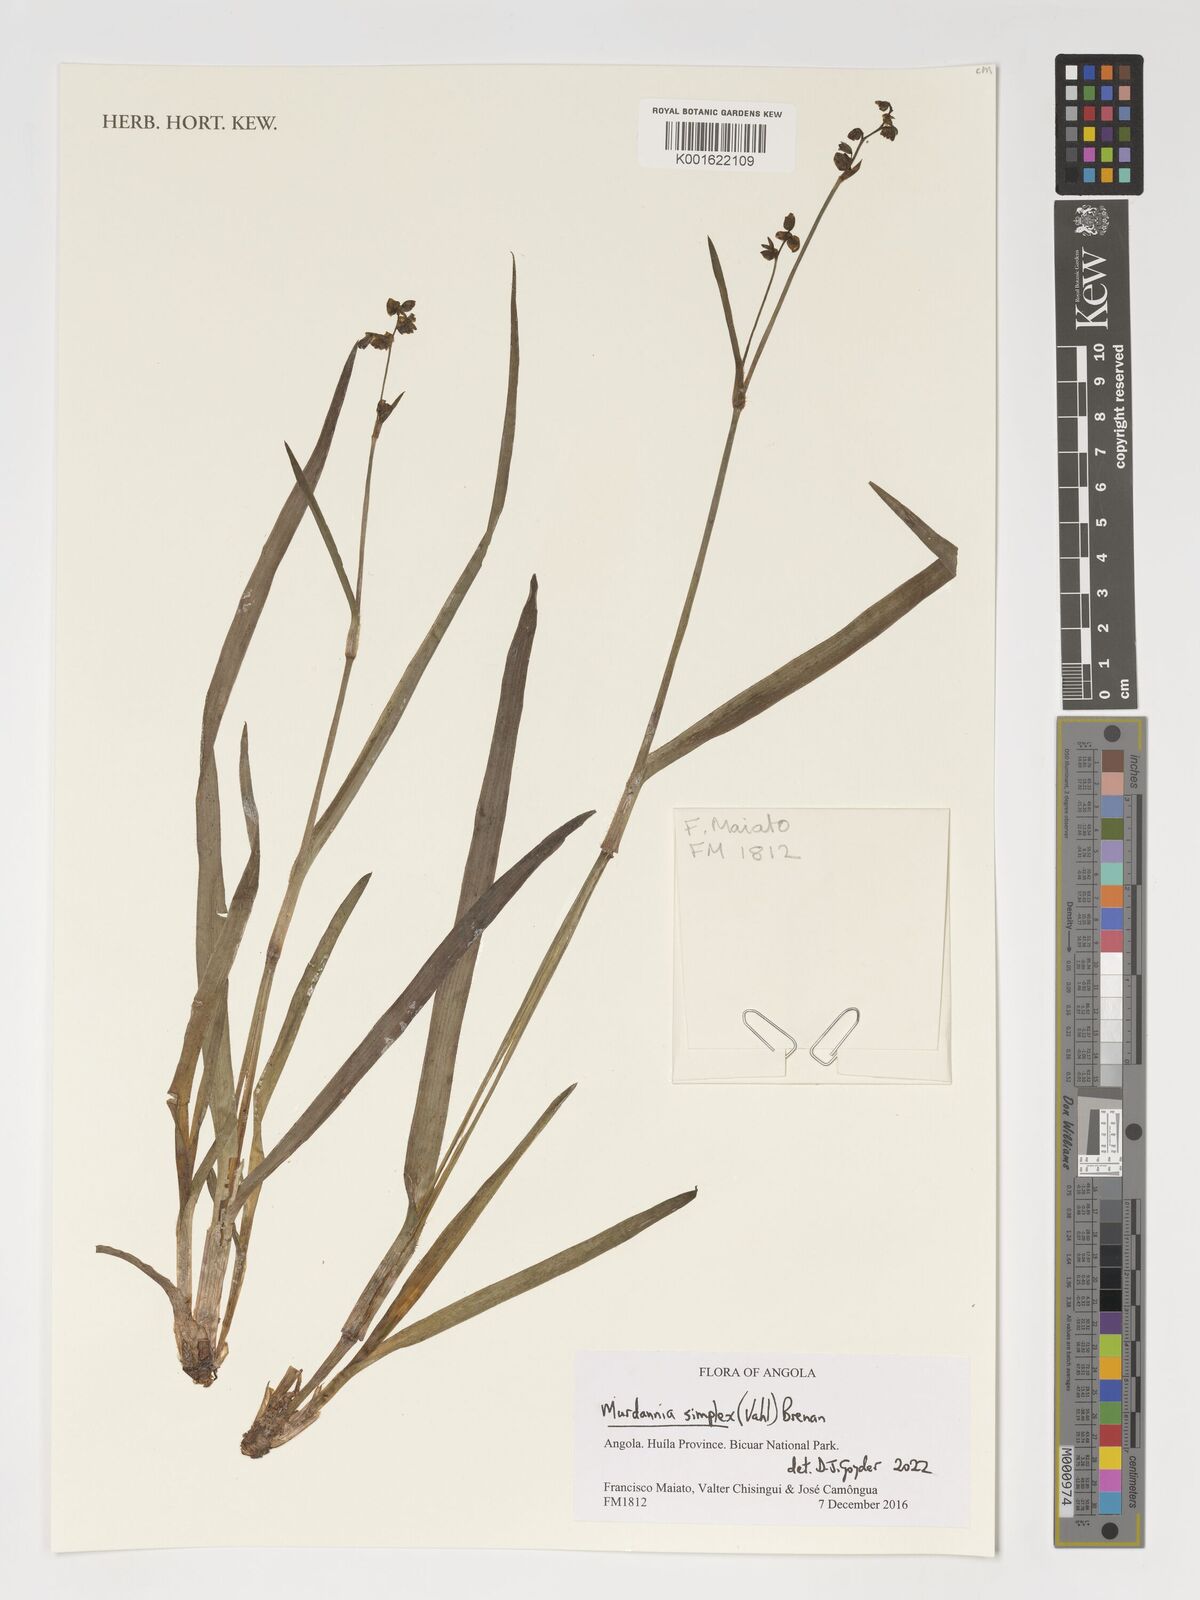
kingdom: Plantae
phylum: Tracheophyta
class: Liliopsida
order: Commelinales
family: Commelinaceae
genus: Murdannia
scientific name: Murdannia simplex
